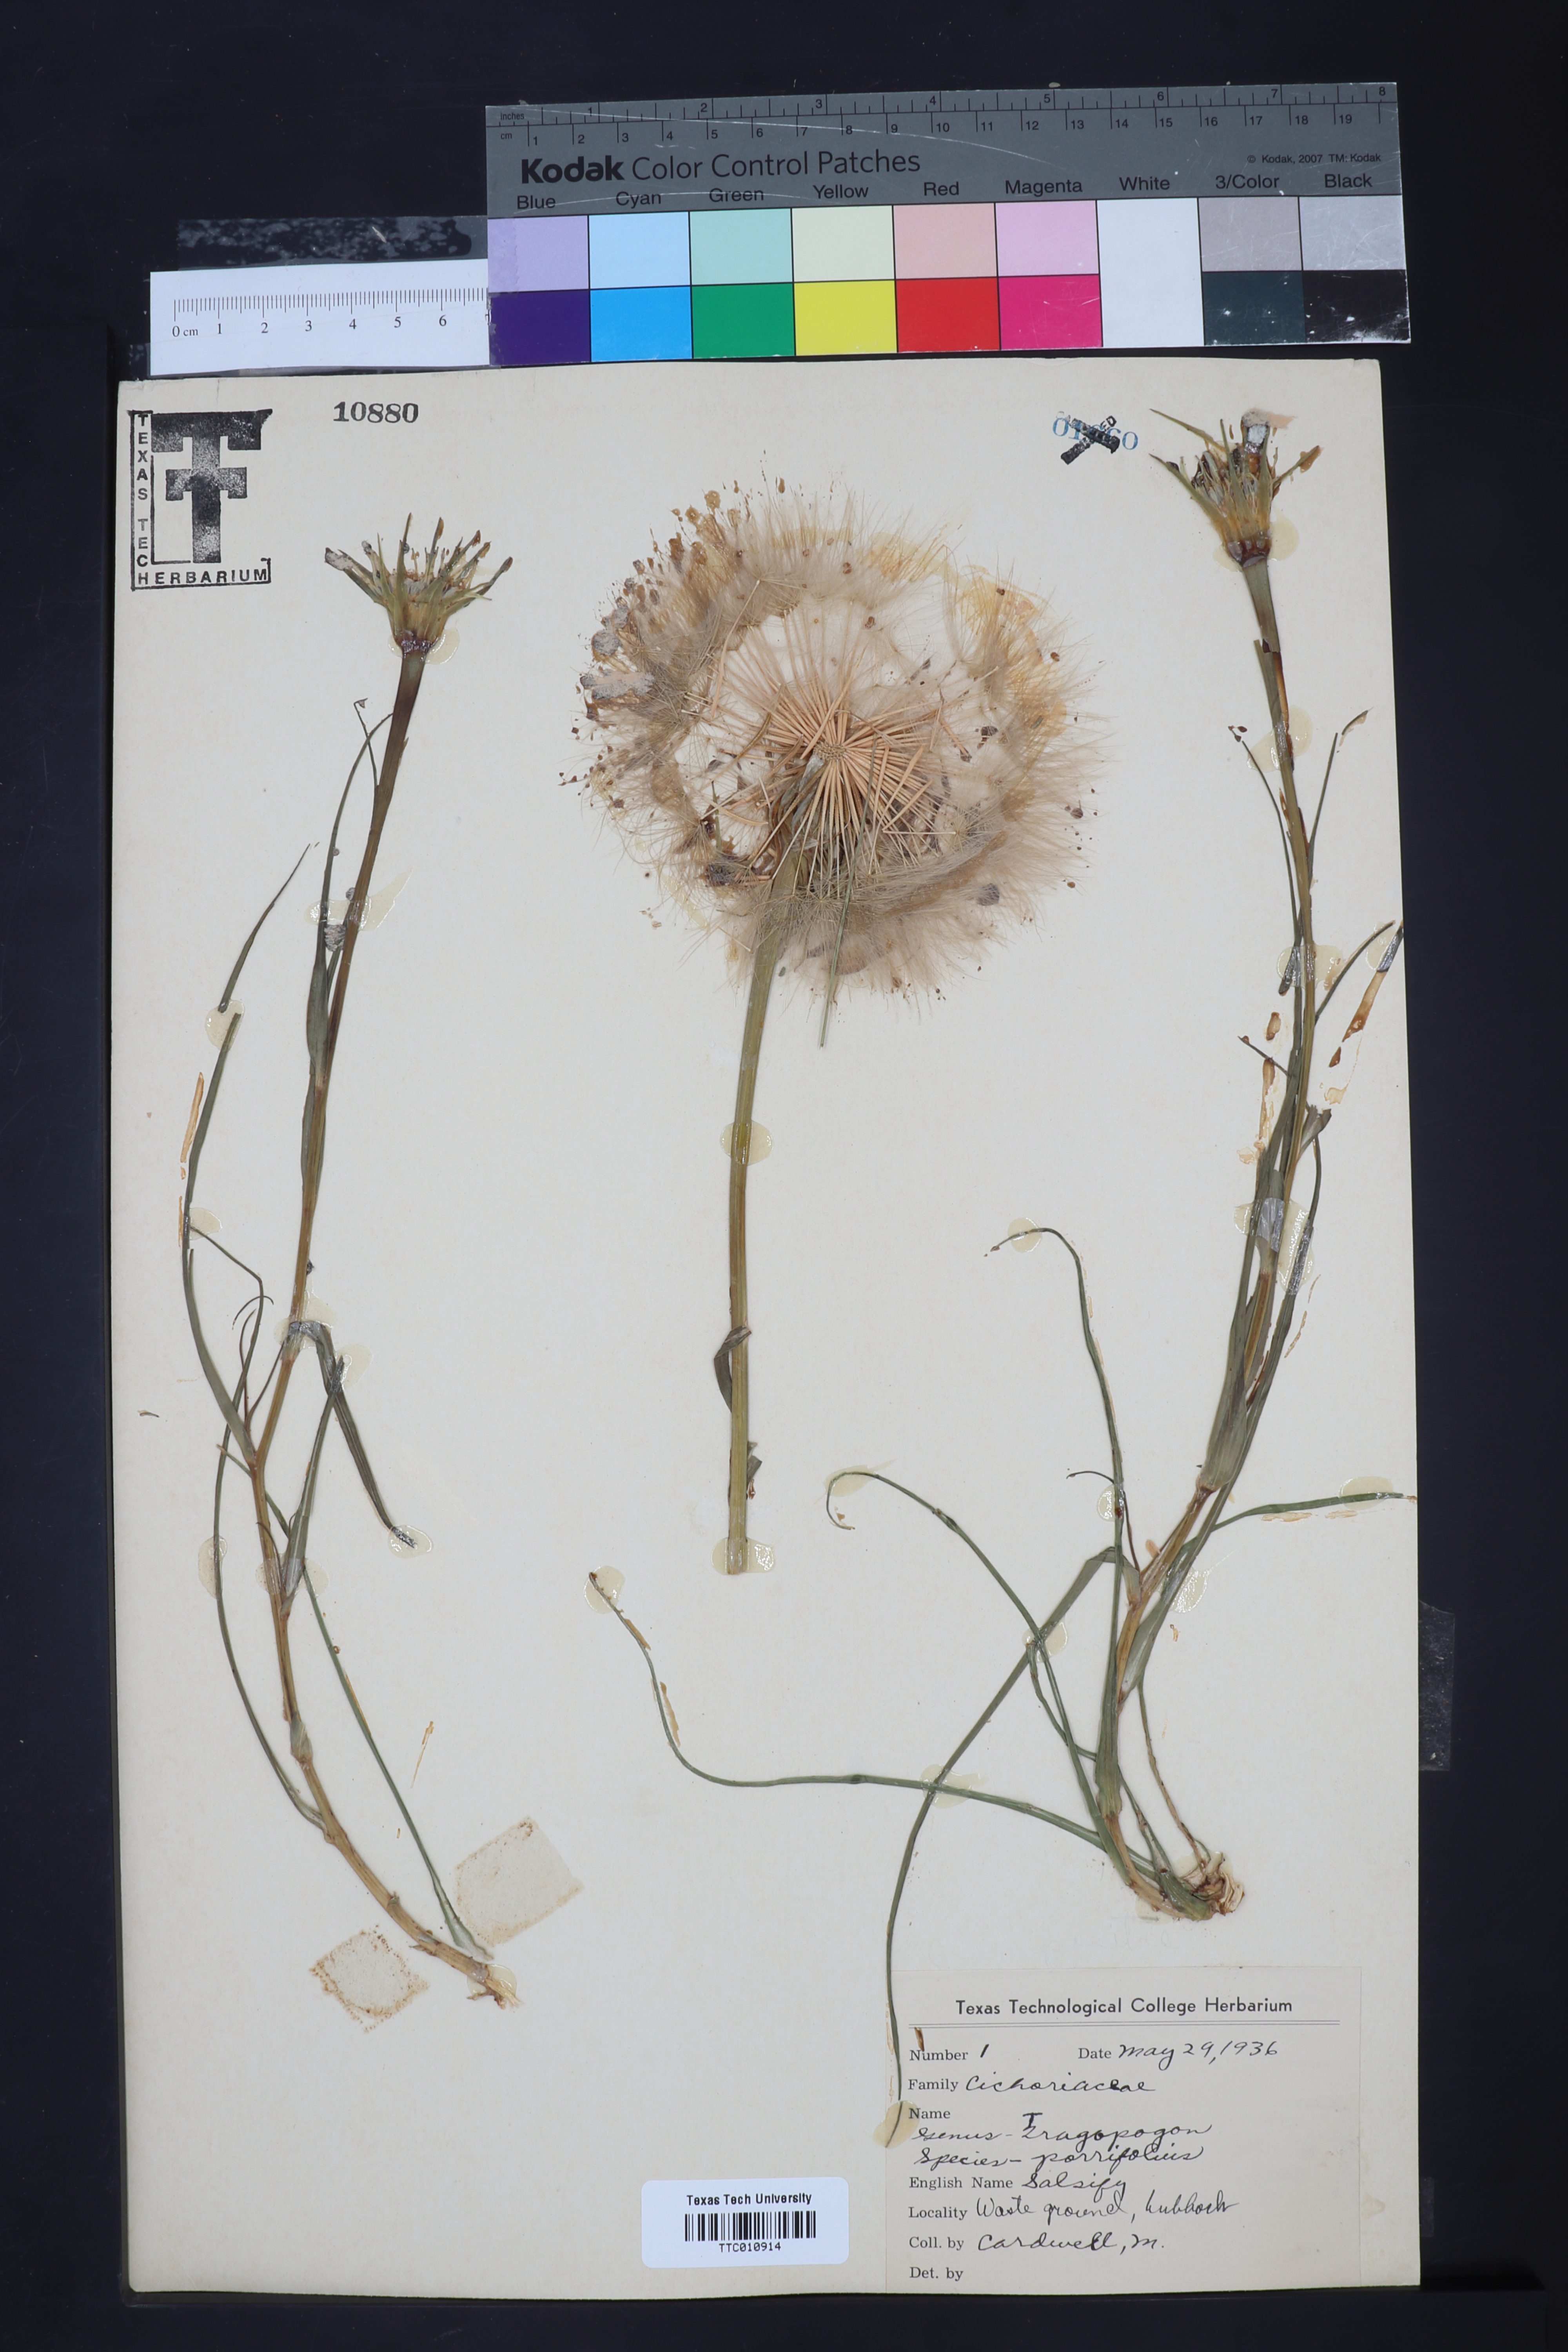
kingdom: Plantae
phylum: Tracheophyta
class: Magnoliopsida
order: Asterales
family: Asteraceae
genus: Tragopogon
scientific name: Tragopogon porrifolius
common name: Salsify
